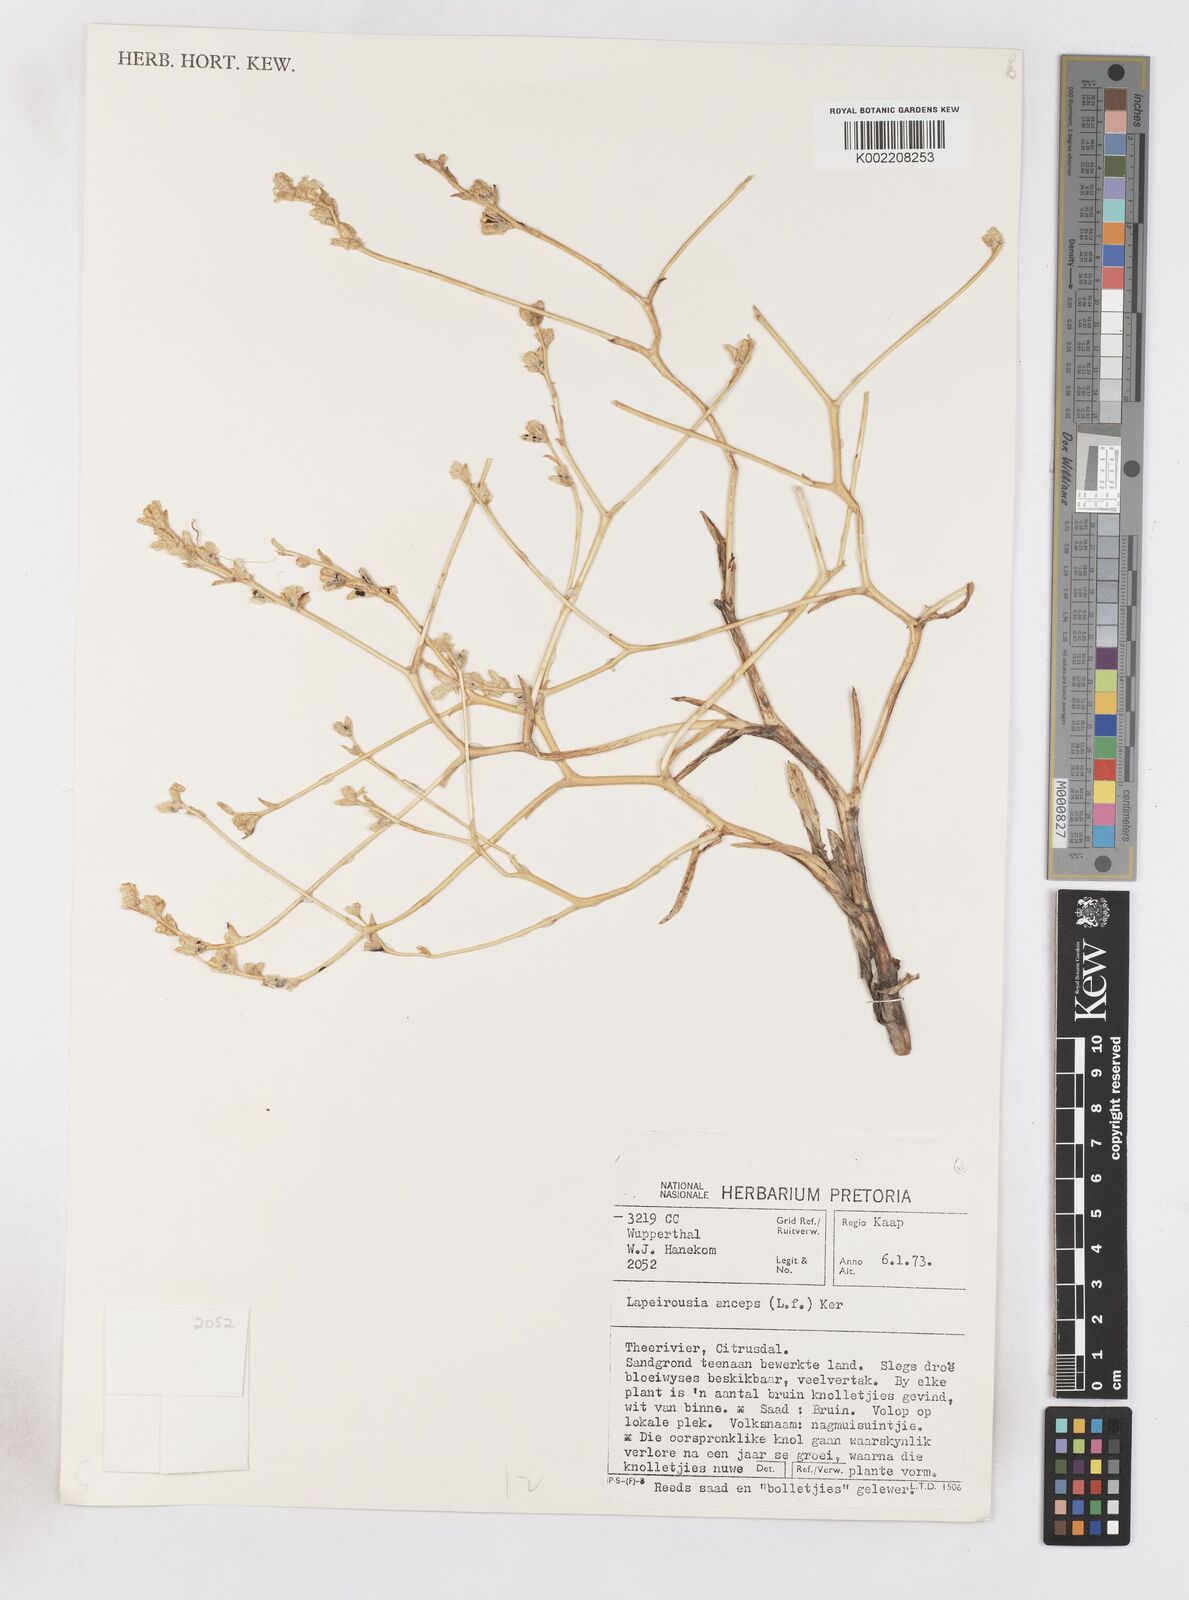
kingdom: Plantae
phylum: Tracheophyta
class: Liliopsida
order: Asparagales
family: Iridaceae
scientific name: Iridaceae
